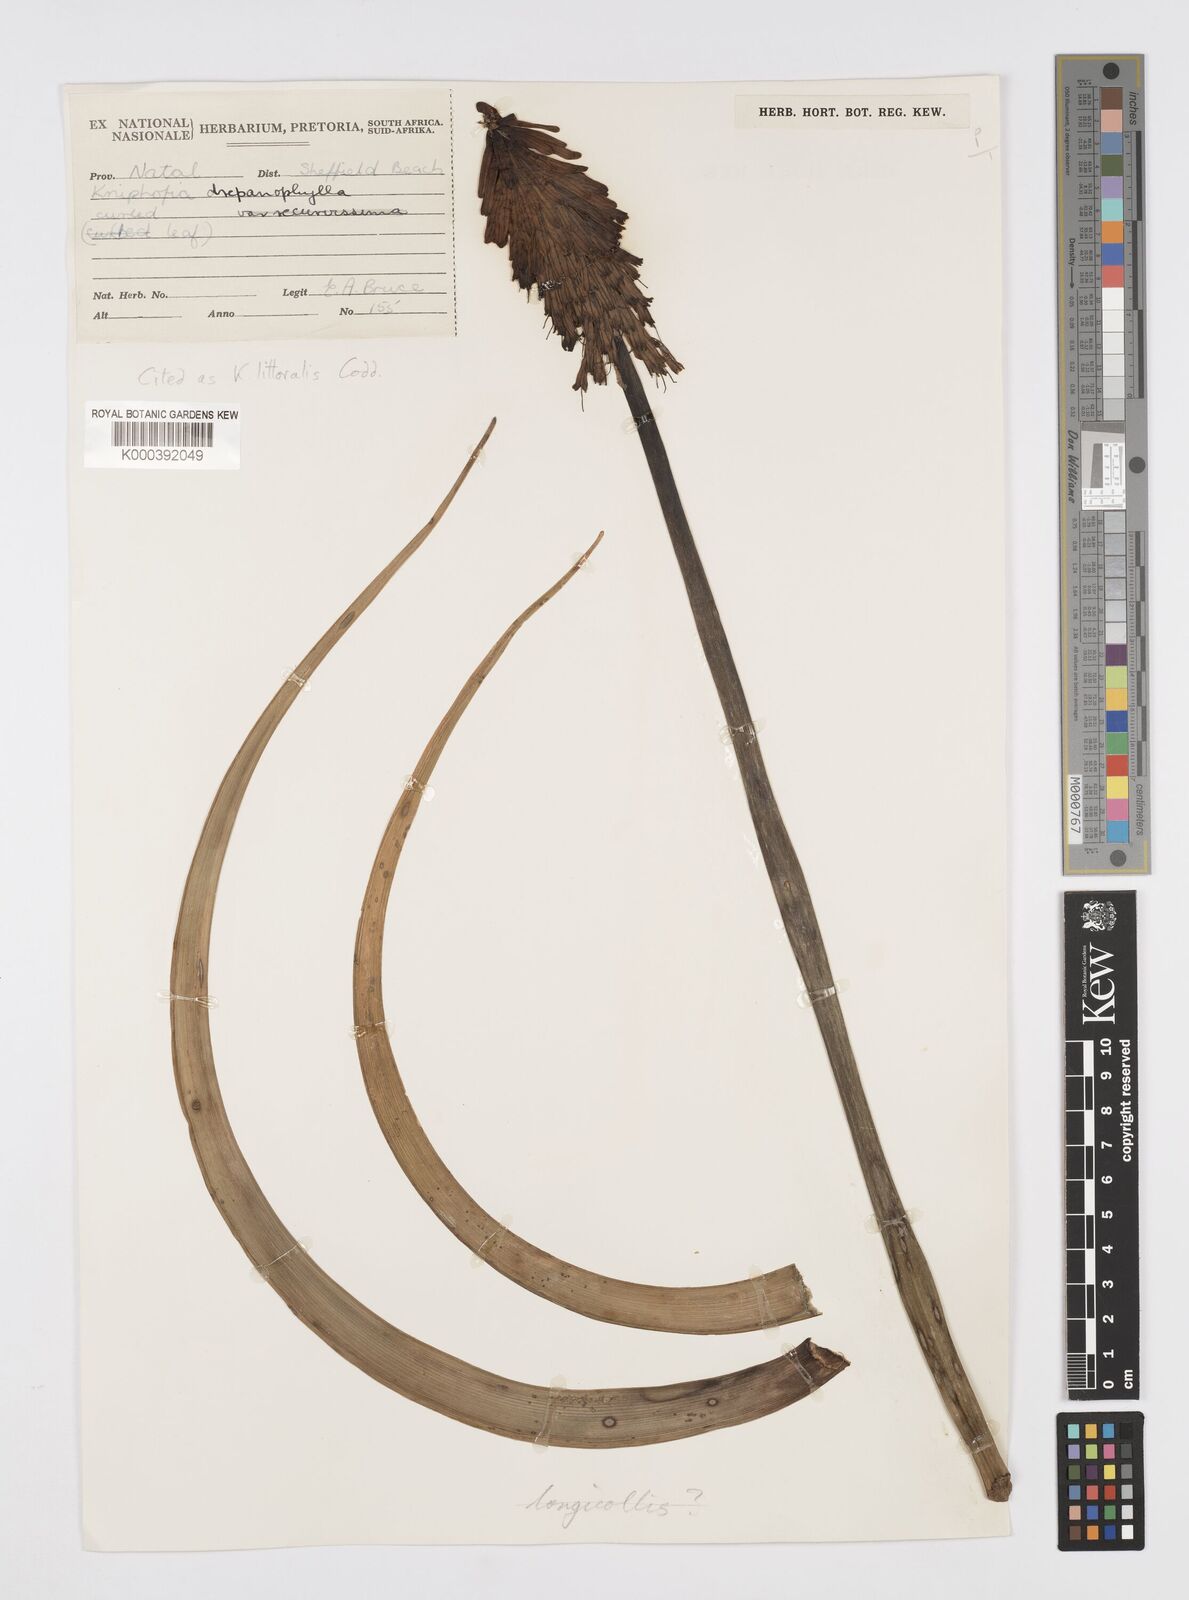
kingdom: Plantae
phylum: Tracheophyta
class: Liliopsida
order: Asparagales
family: Asphodelaceae
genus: Kniphofia
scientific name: Kniphofia littoralis
